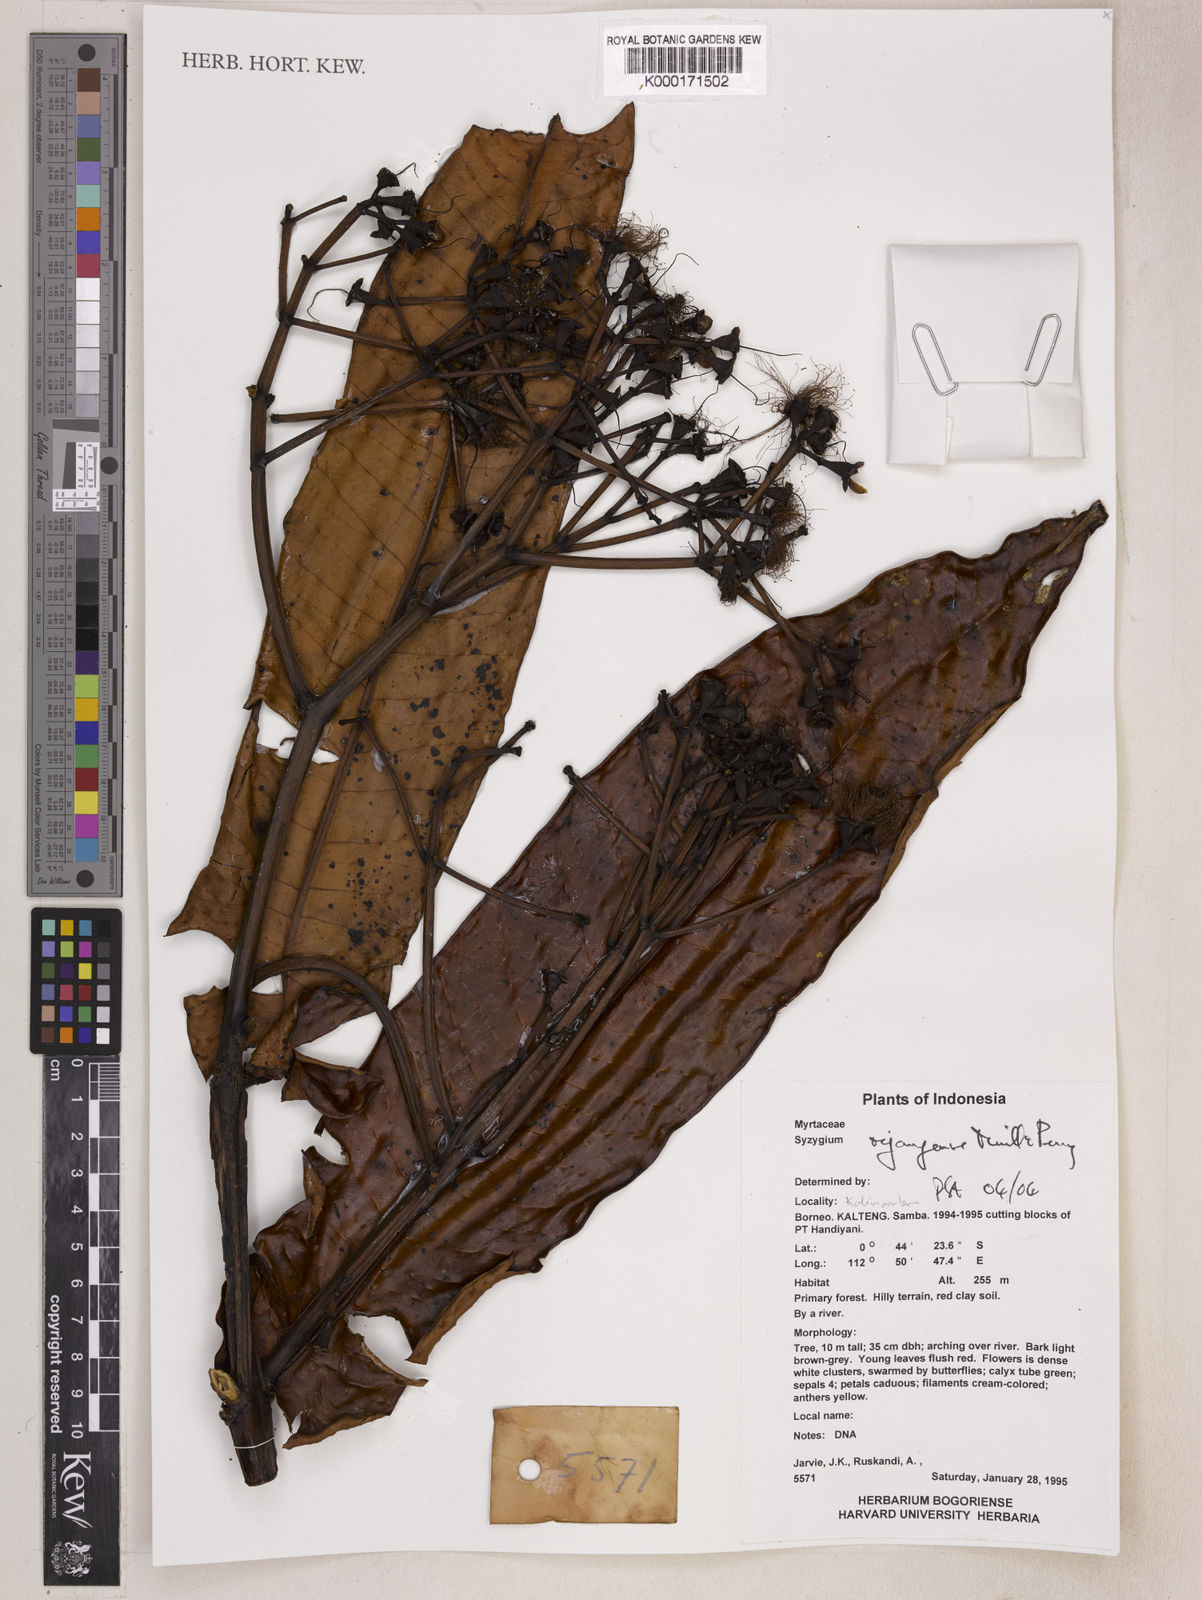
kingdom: Plantae
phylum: Tracheophyta
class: Magnoliopsida
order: Myrtales
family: Myrtaceae
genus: Syzygium
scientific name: Syzygium rejangense
